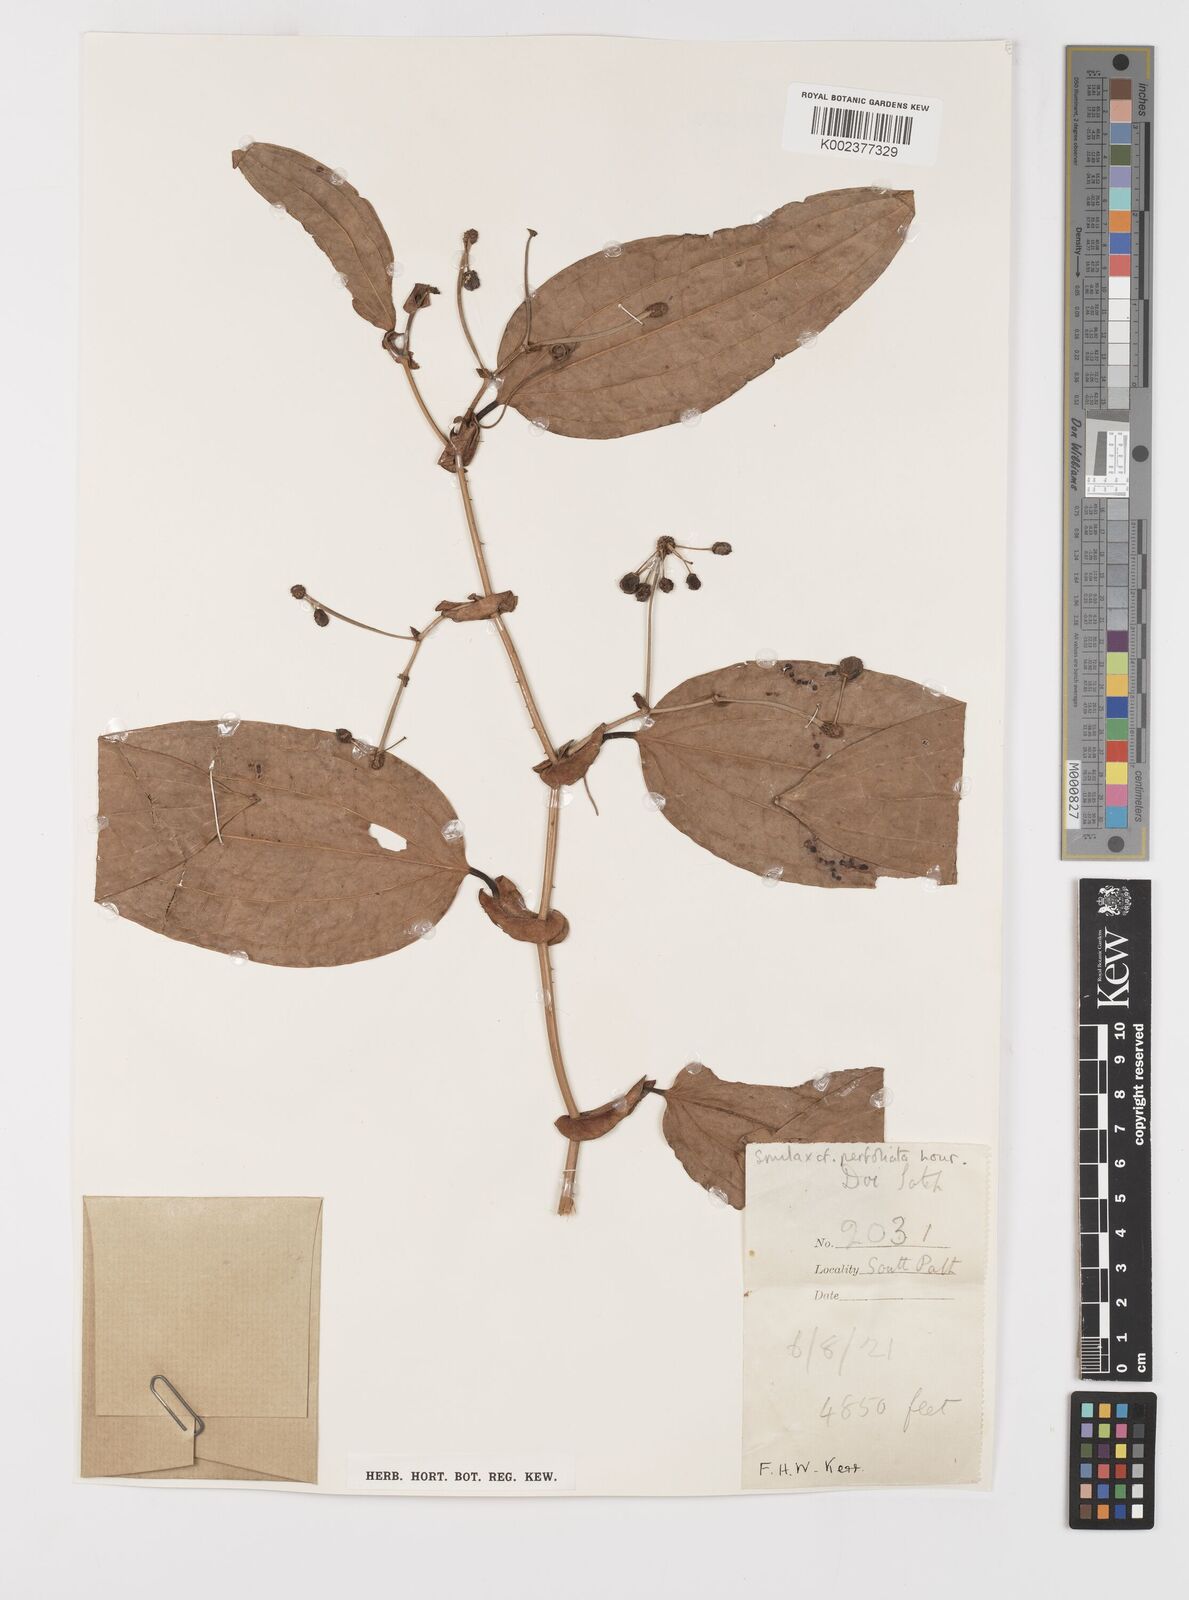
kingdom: Plantae
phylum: Tracheophyta
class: Liliopsida
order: Liliales
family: Smilacaceae
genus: Smilax
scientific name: Smilax perfoliata
